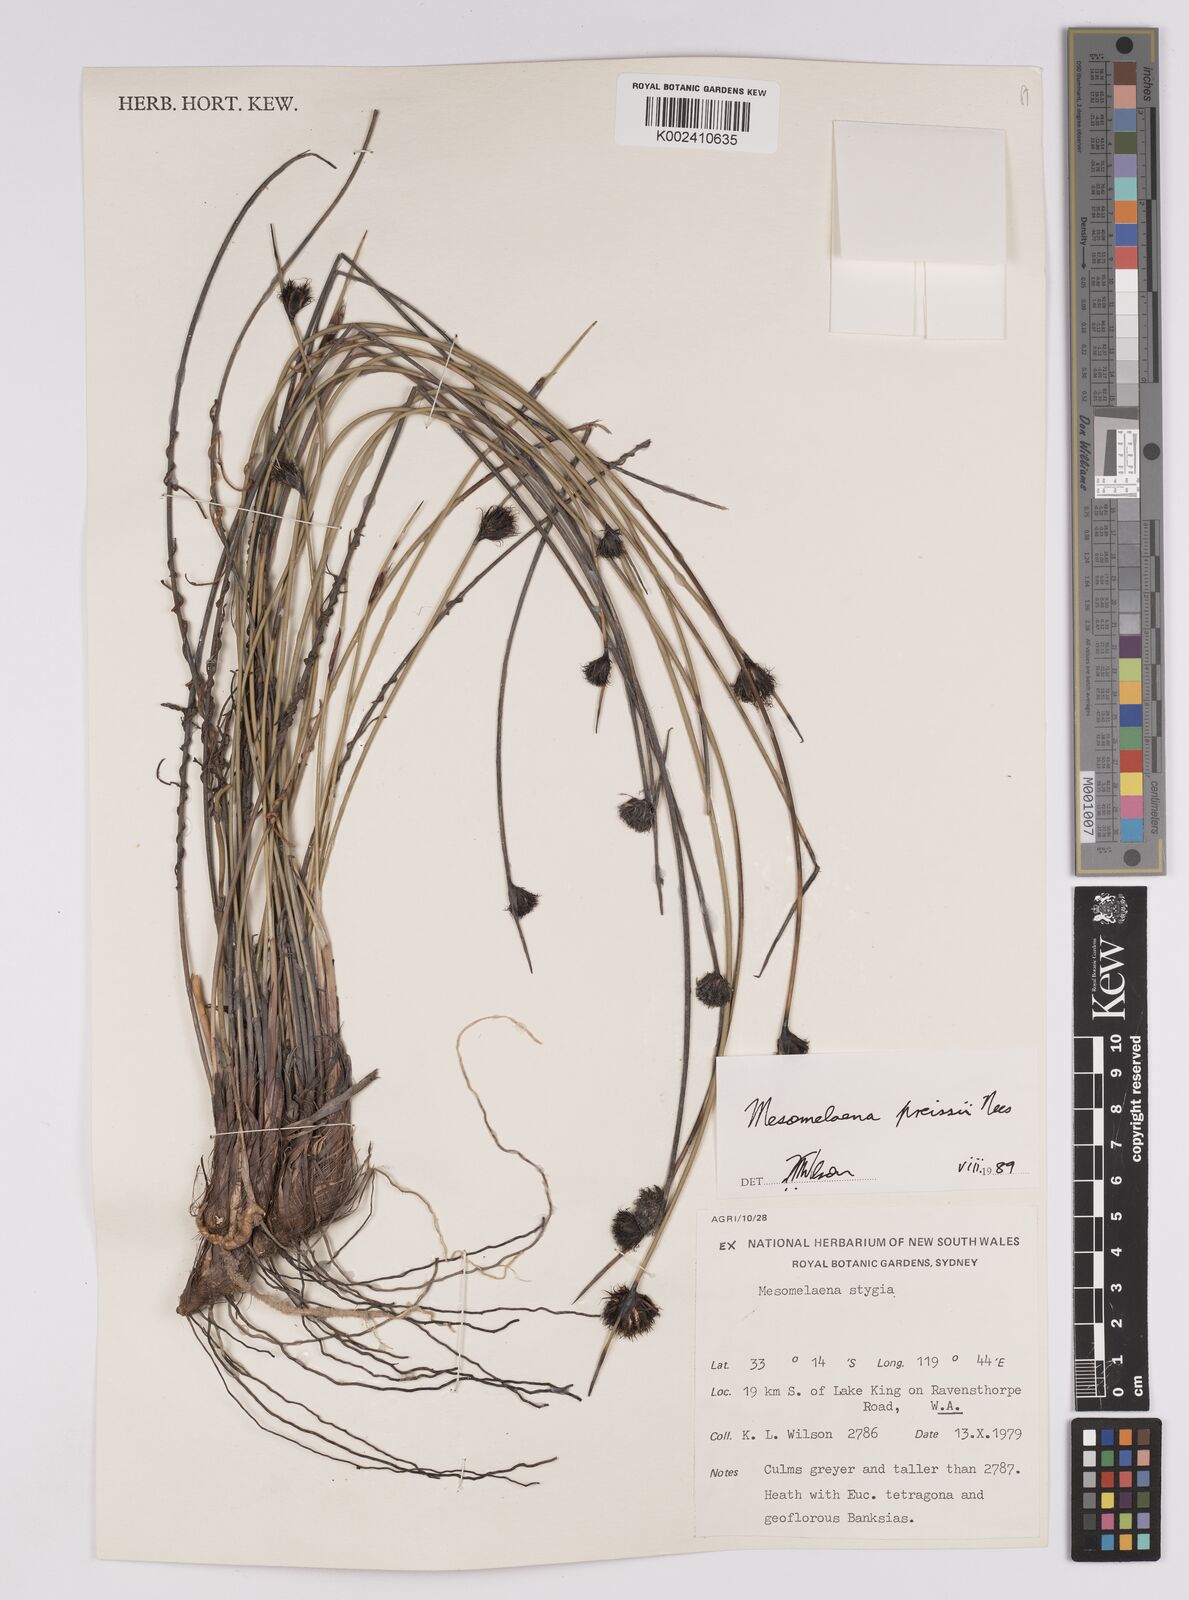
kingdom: Plantae
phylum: Tracheophyta
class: Liliopsida
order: Poales
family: Cyperaceae
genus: Mesomelaena
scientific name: Mesomelaena preissii
